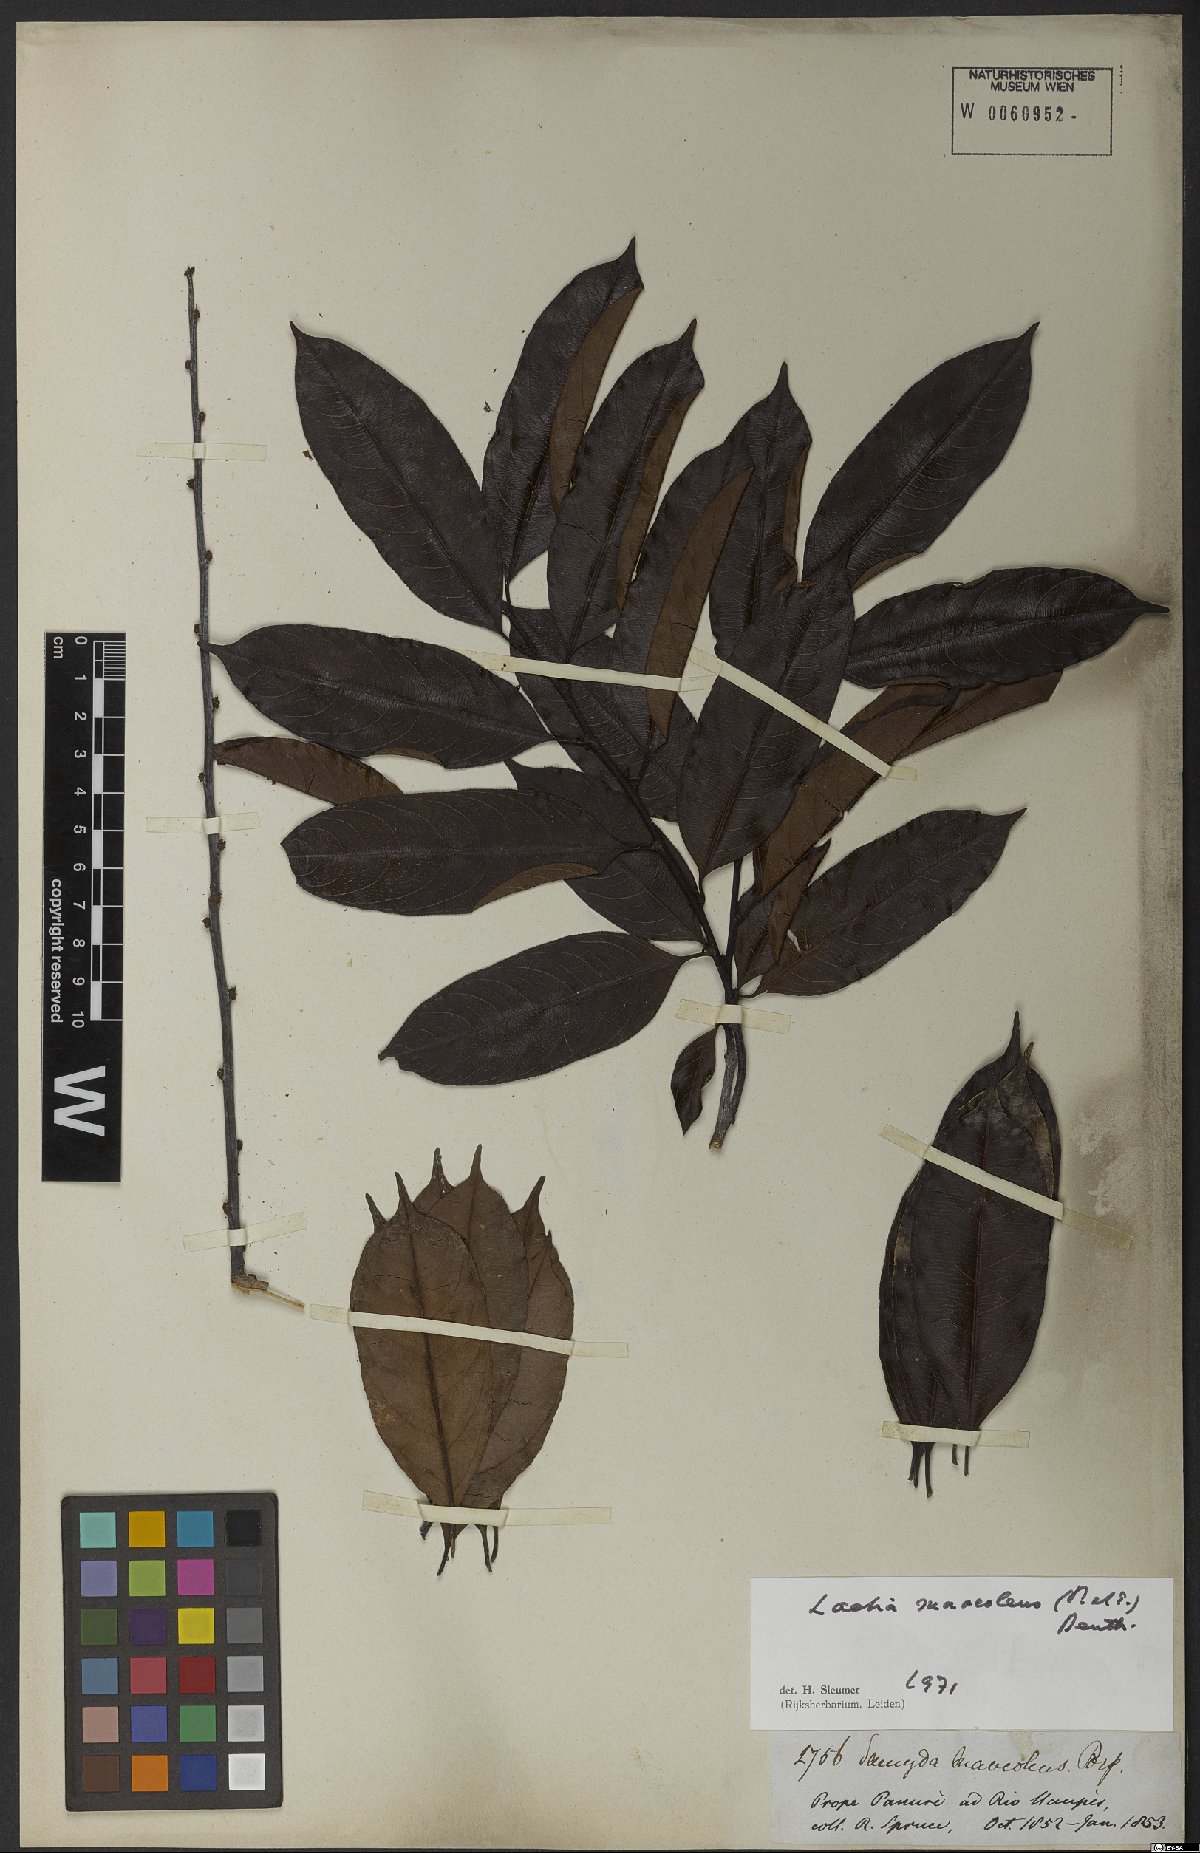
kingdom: Plantae
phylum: Tracheophyta
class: Magnoliopsida
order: Malpighiales
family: Salicaceae
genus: Casearia
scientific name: Casearia suaveolens
